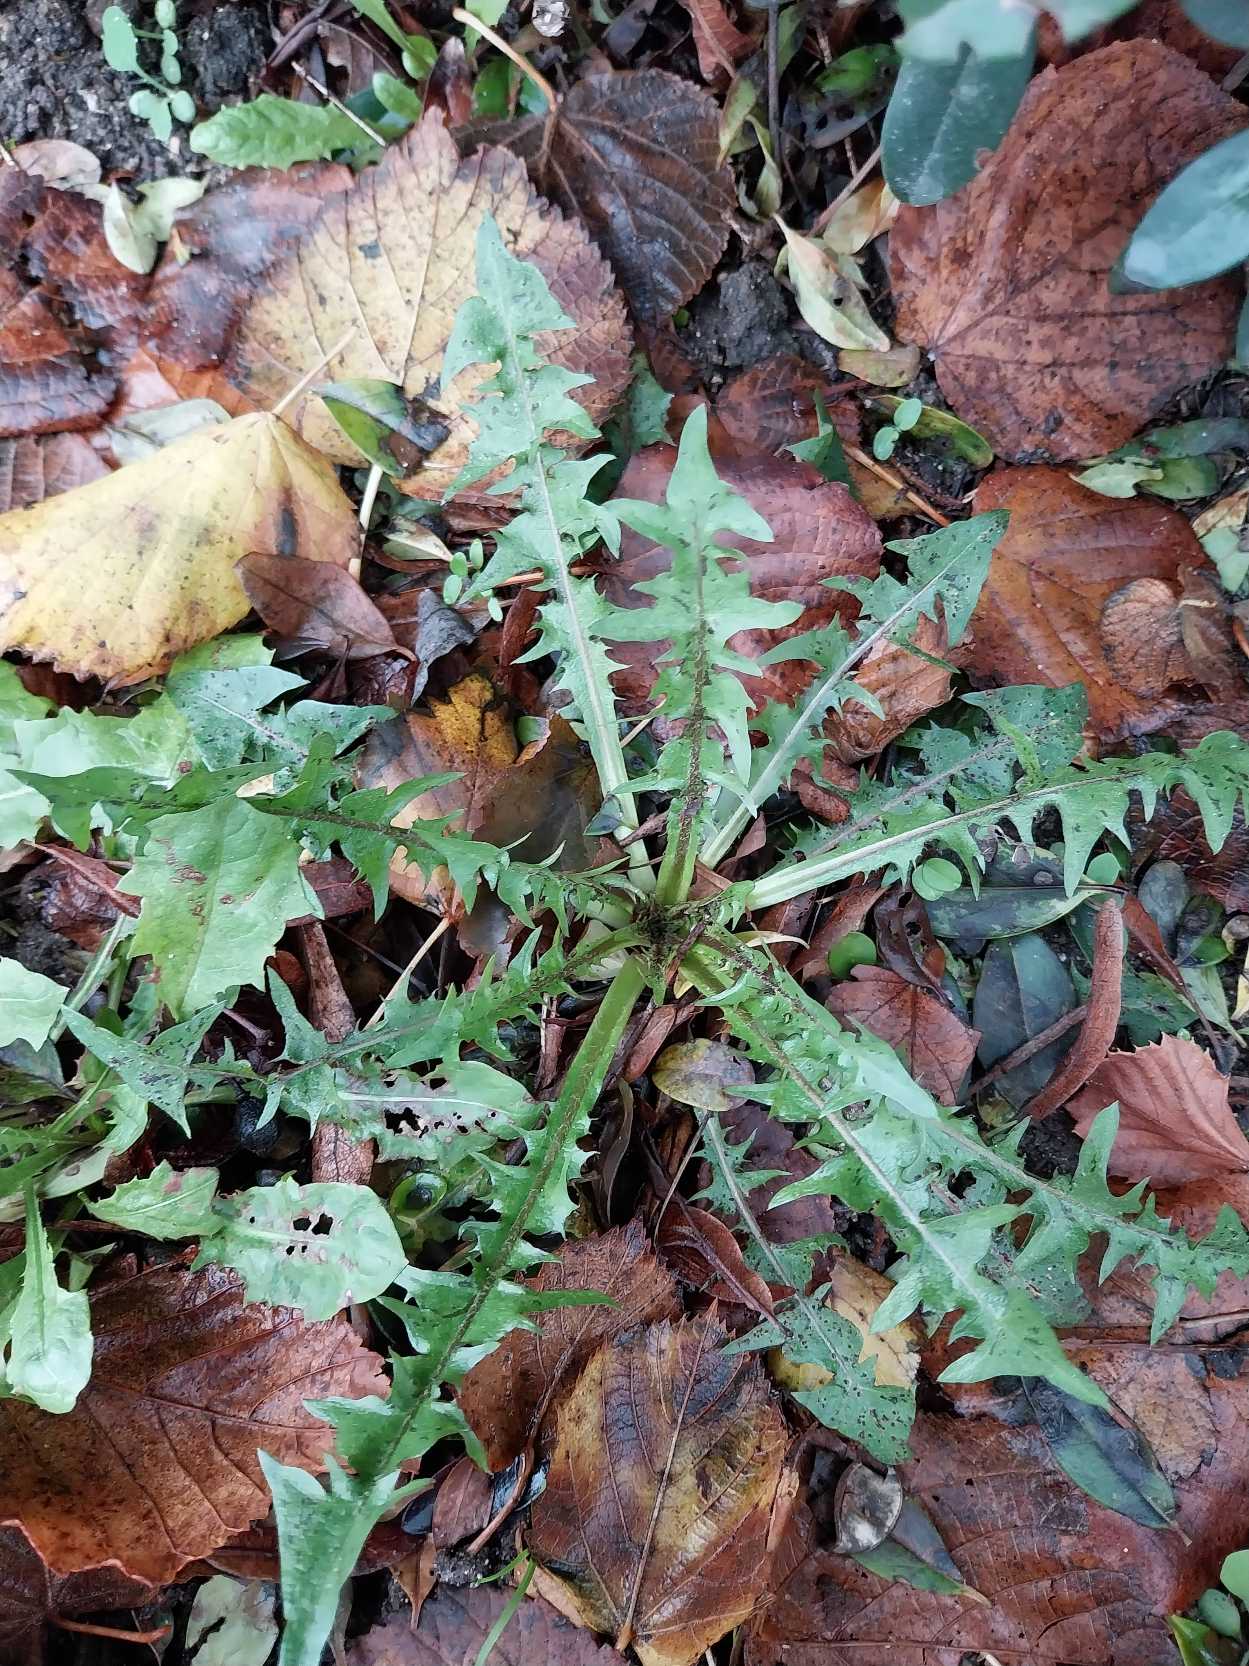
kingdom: Plantae
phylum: Tracheophyta
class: Magnoliopsida
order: Asterales
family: Asteraceae
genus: Taraxacum
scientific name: Taraxacum
